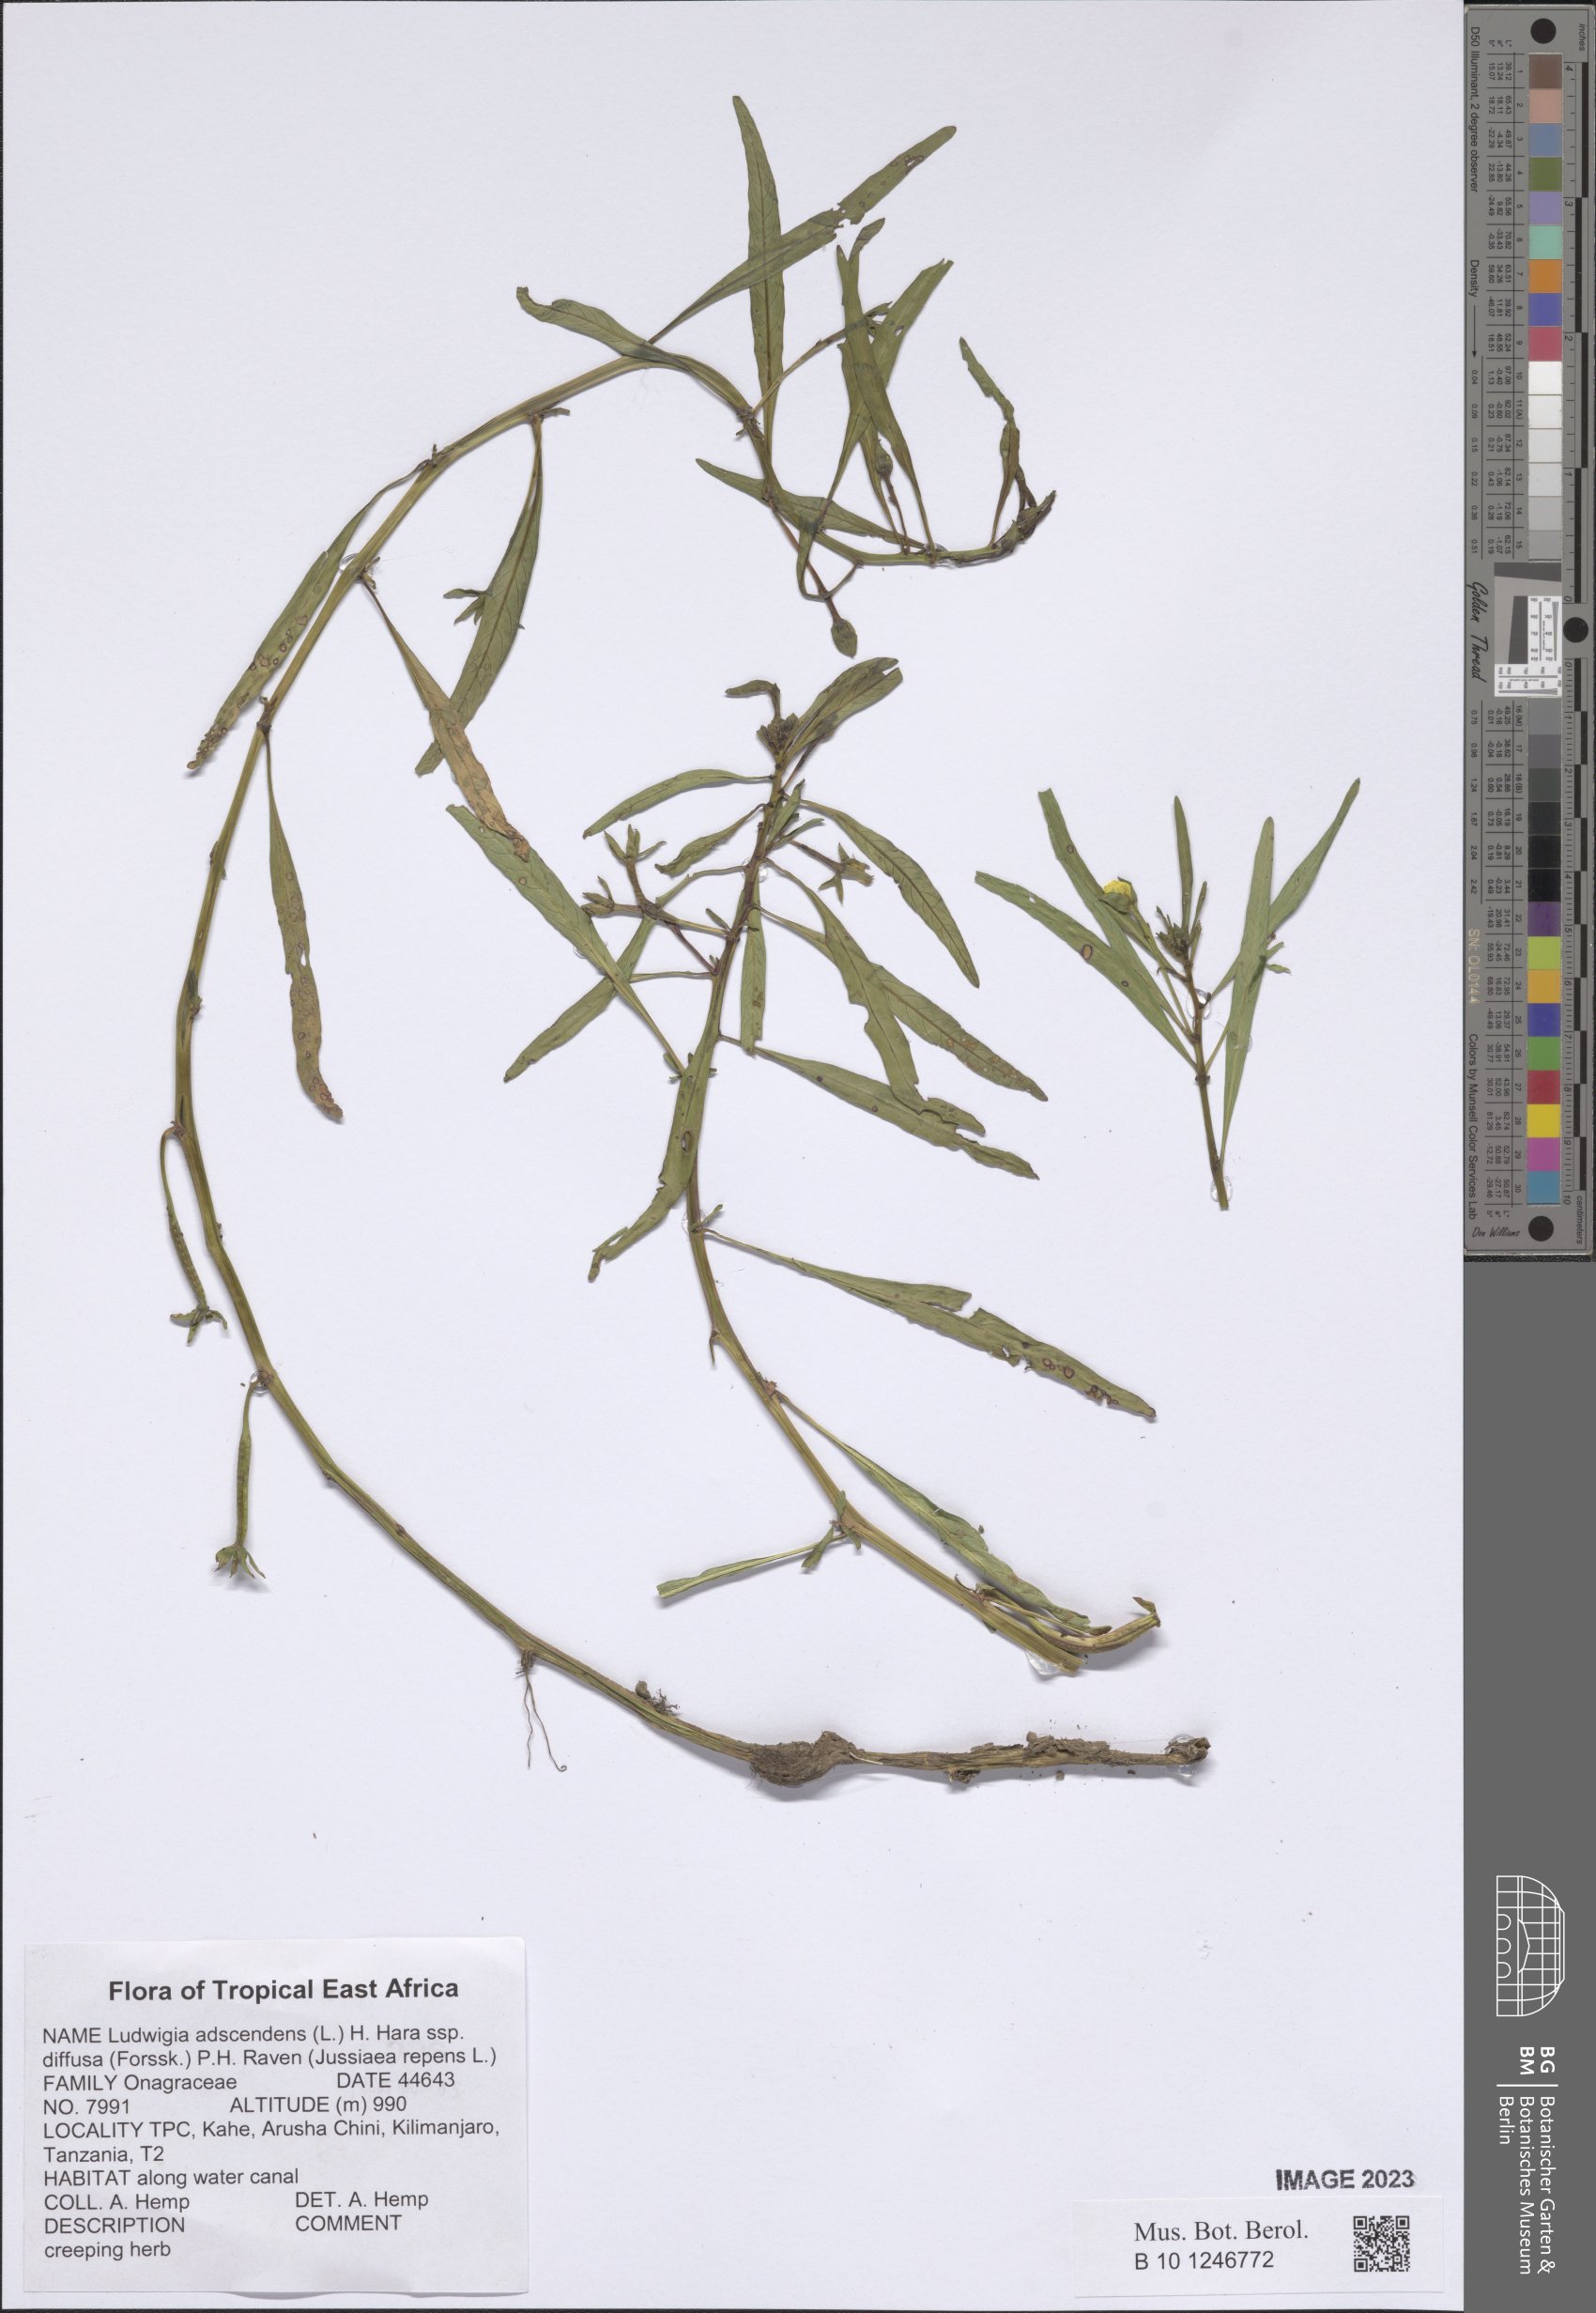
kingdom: Plantae
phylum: Tracheophyta
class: Magnoliopsida
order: Myrtales
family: Onagraceae
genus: Ludwigia
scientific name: Ludwigia adscendens
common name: Creeping water primrose
